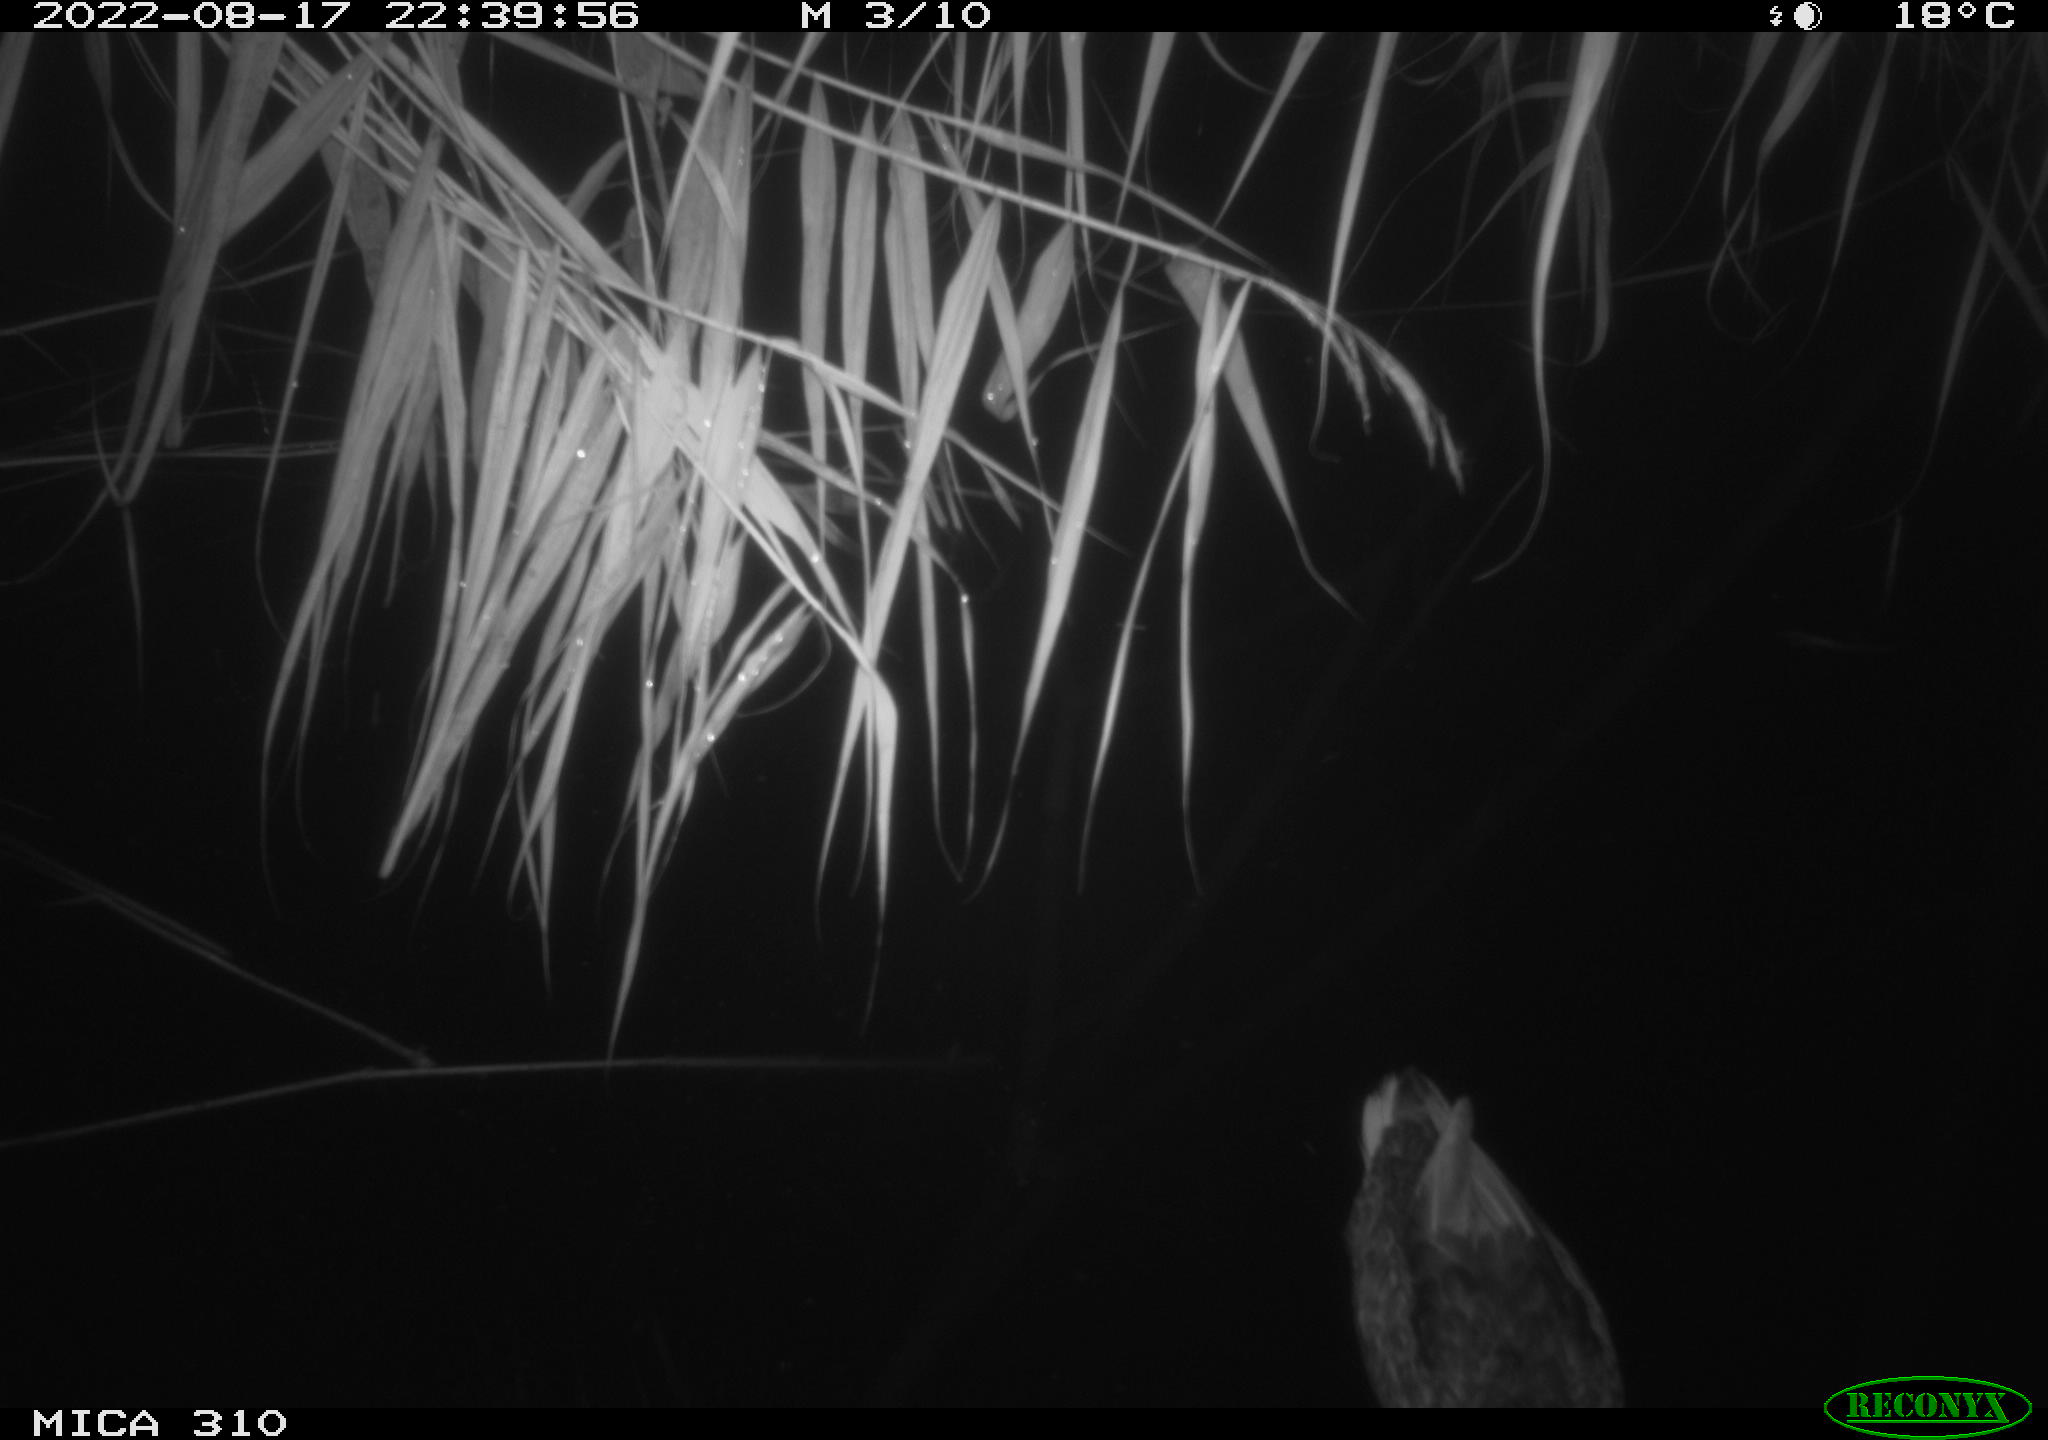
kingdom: Animalia
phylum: Chordata
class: Aves
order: Anseriformes
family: Anatidae
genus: Anas
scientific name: Anas platyrhynchos
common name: Mallard
